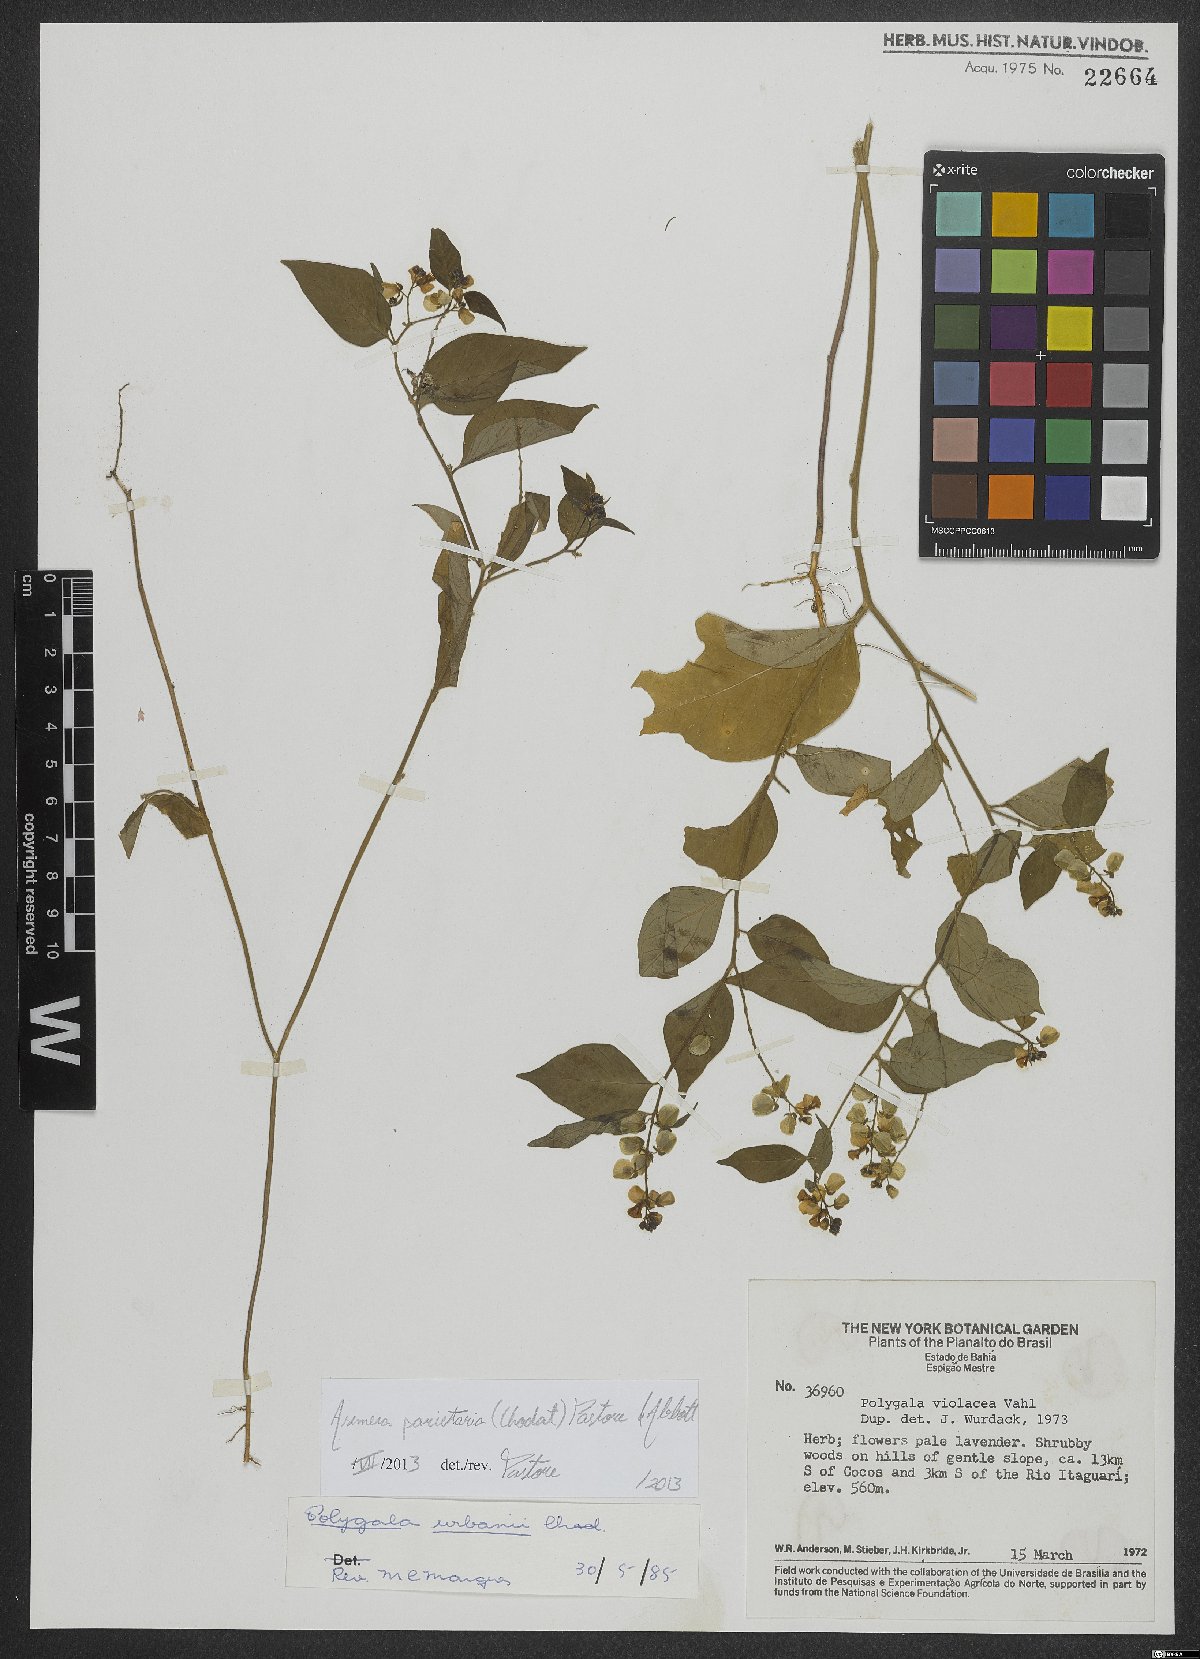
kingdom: Plantae
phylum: Tracheophyta
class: Magnoliopsida
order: Fabales
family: Polygalaceae
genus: Asemeia
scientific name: Asemeia parietaria
